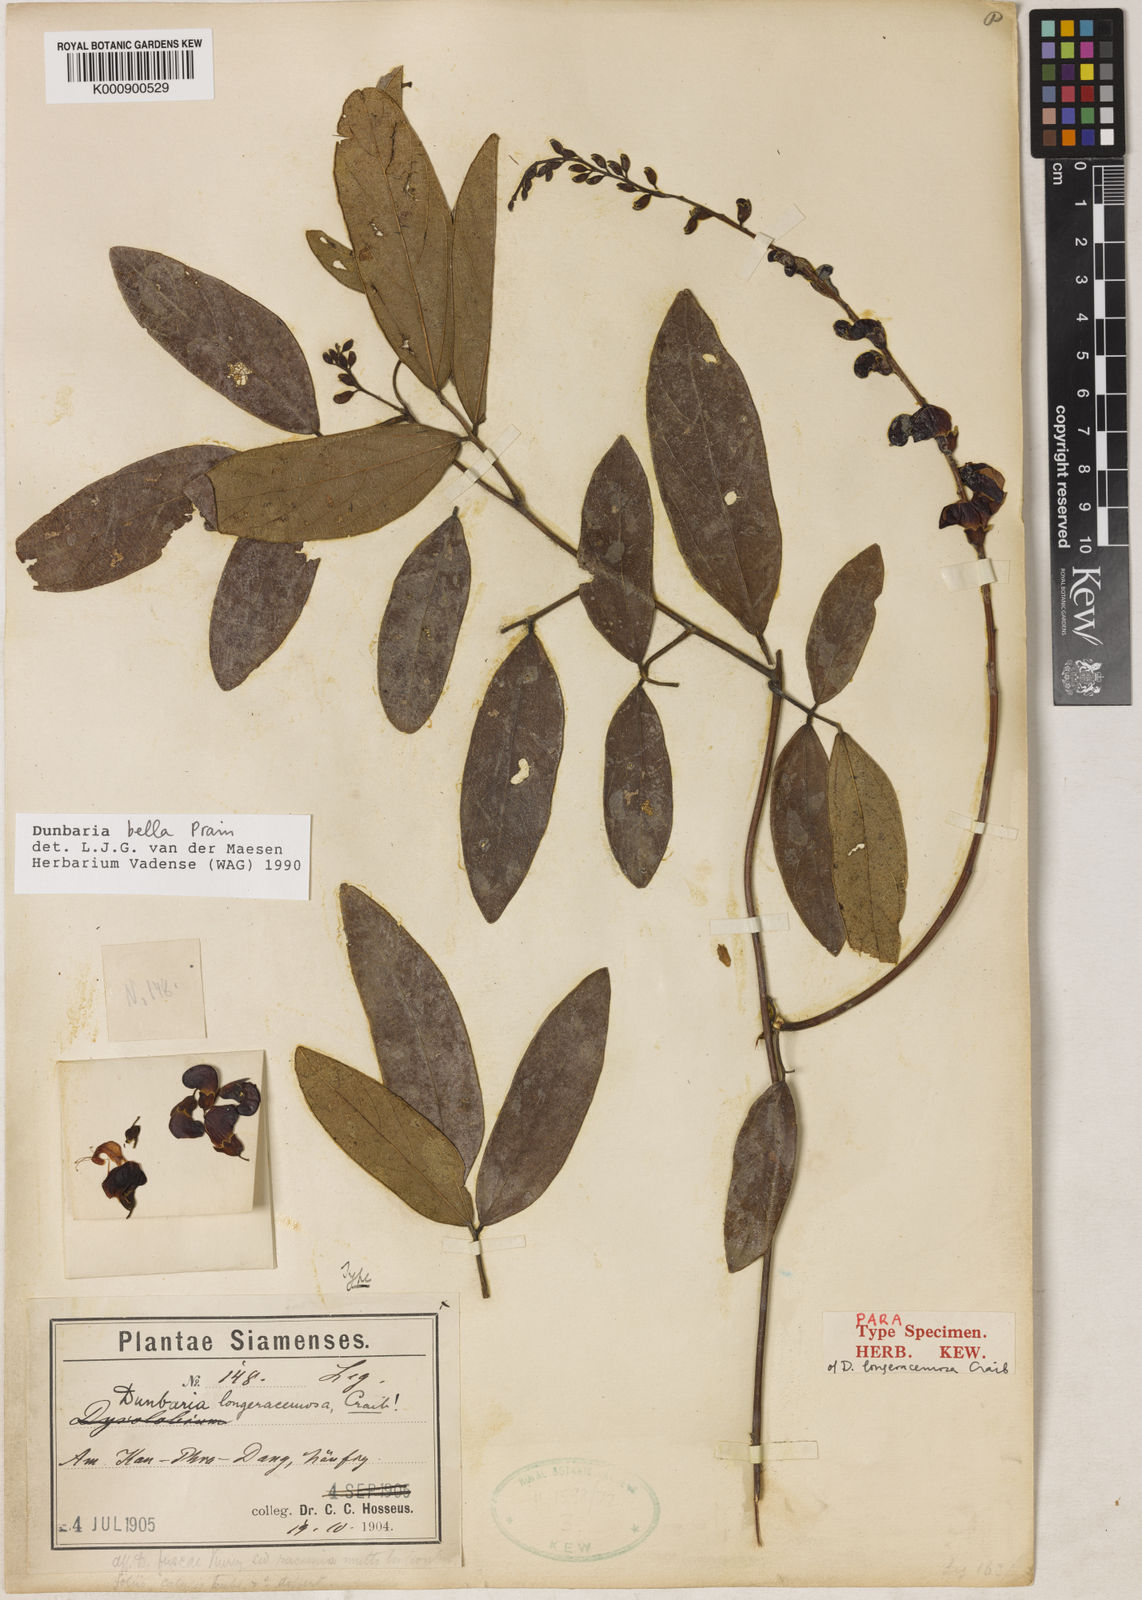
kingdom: Plantae
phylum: Tracheophyta
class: Magnoliopsida
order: Fabales
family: Fabaceae
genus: Dunbaria
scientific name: Dunbaria bella
